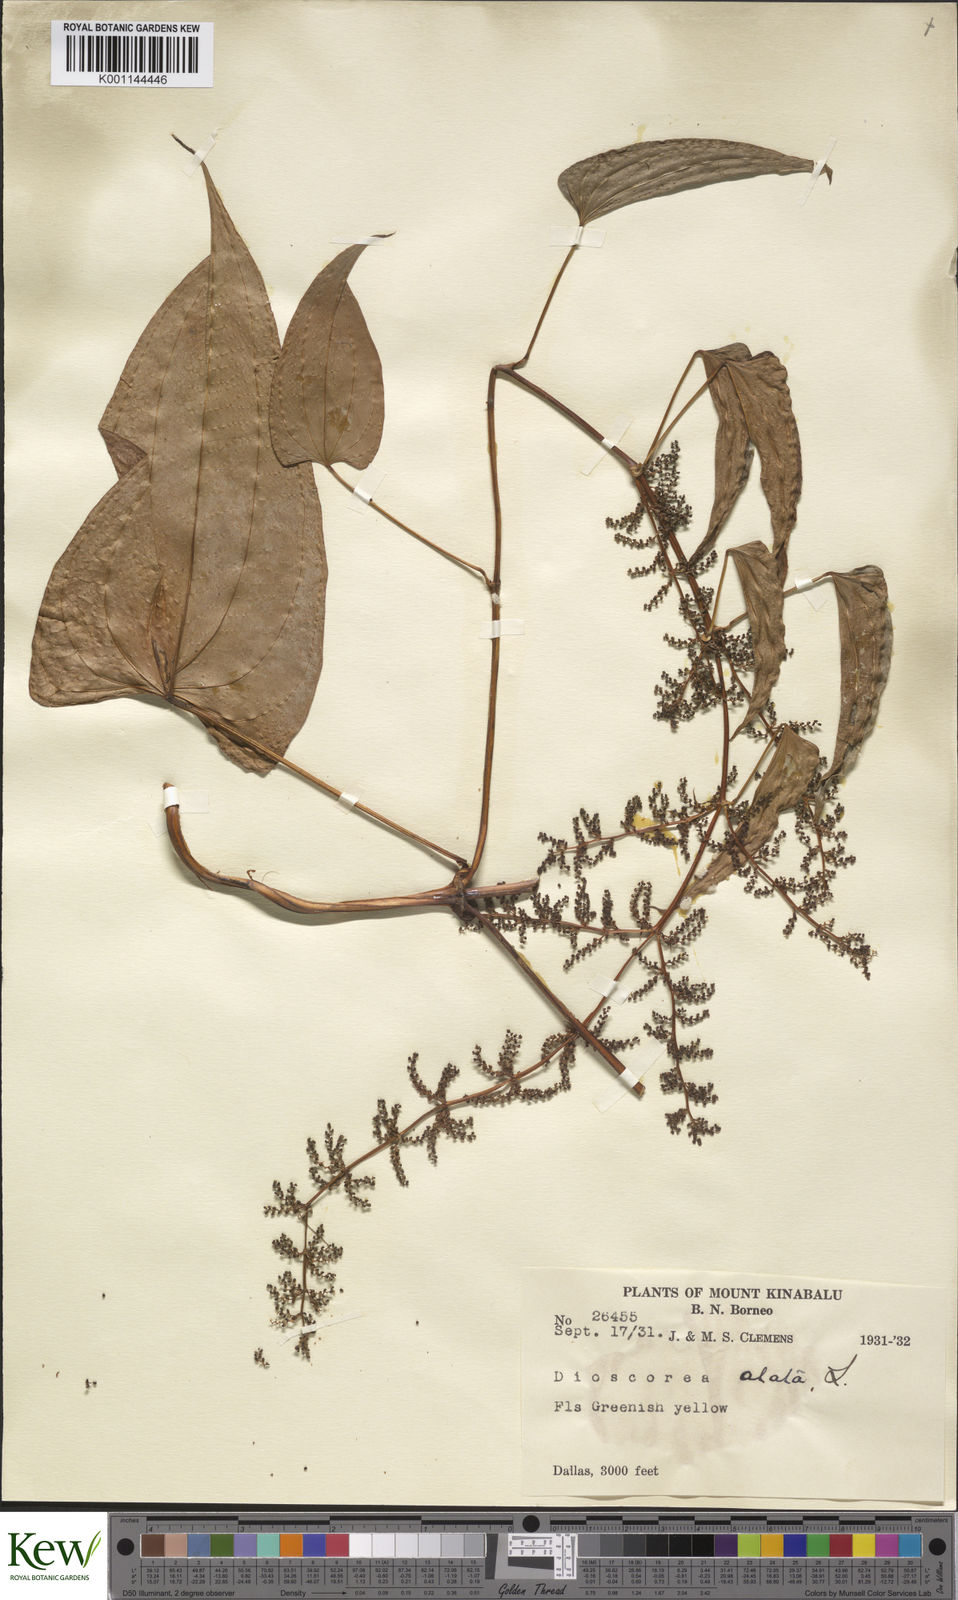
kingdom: Plantae
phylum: Tracheophyta
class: Liliopsida
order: Dioscoreales
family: Dioscoreaceae
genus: Dioscorea
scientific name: Dioscorea alata
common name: Water yam
